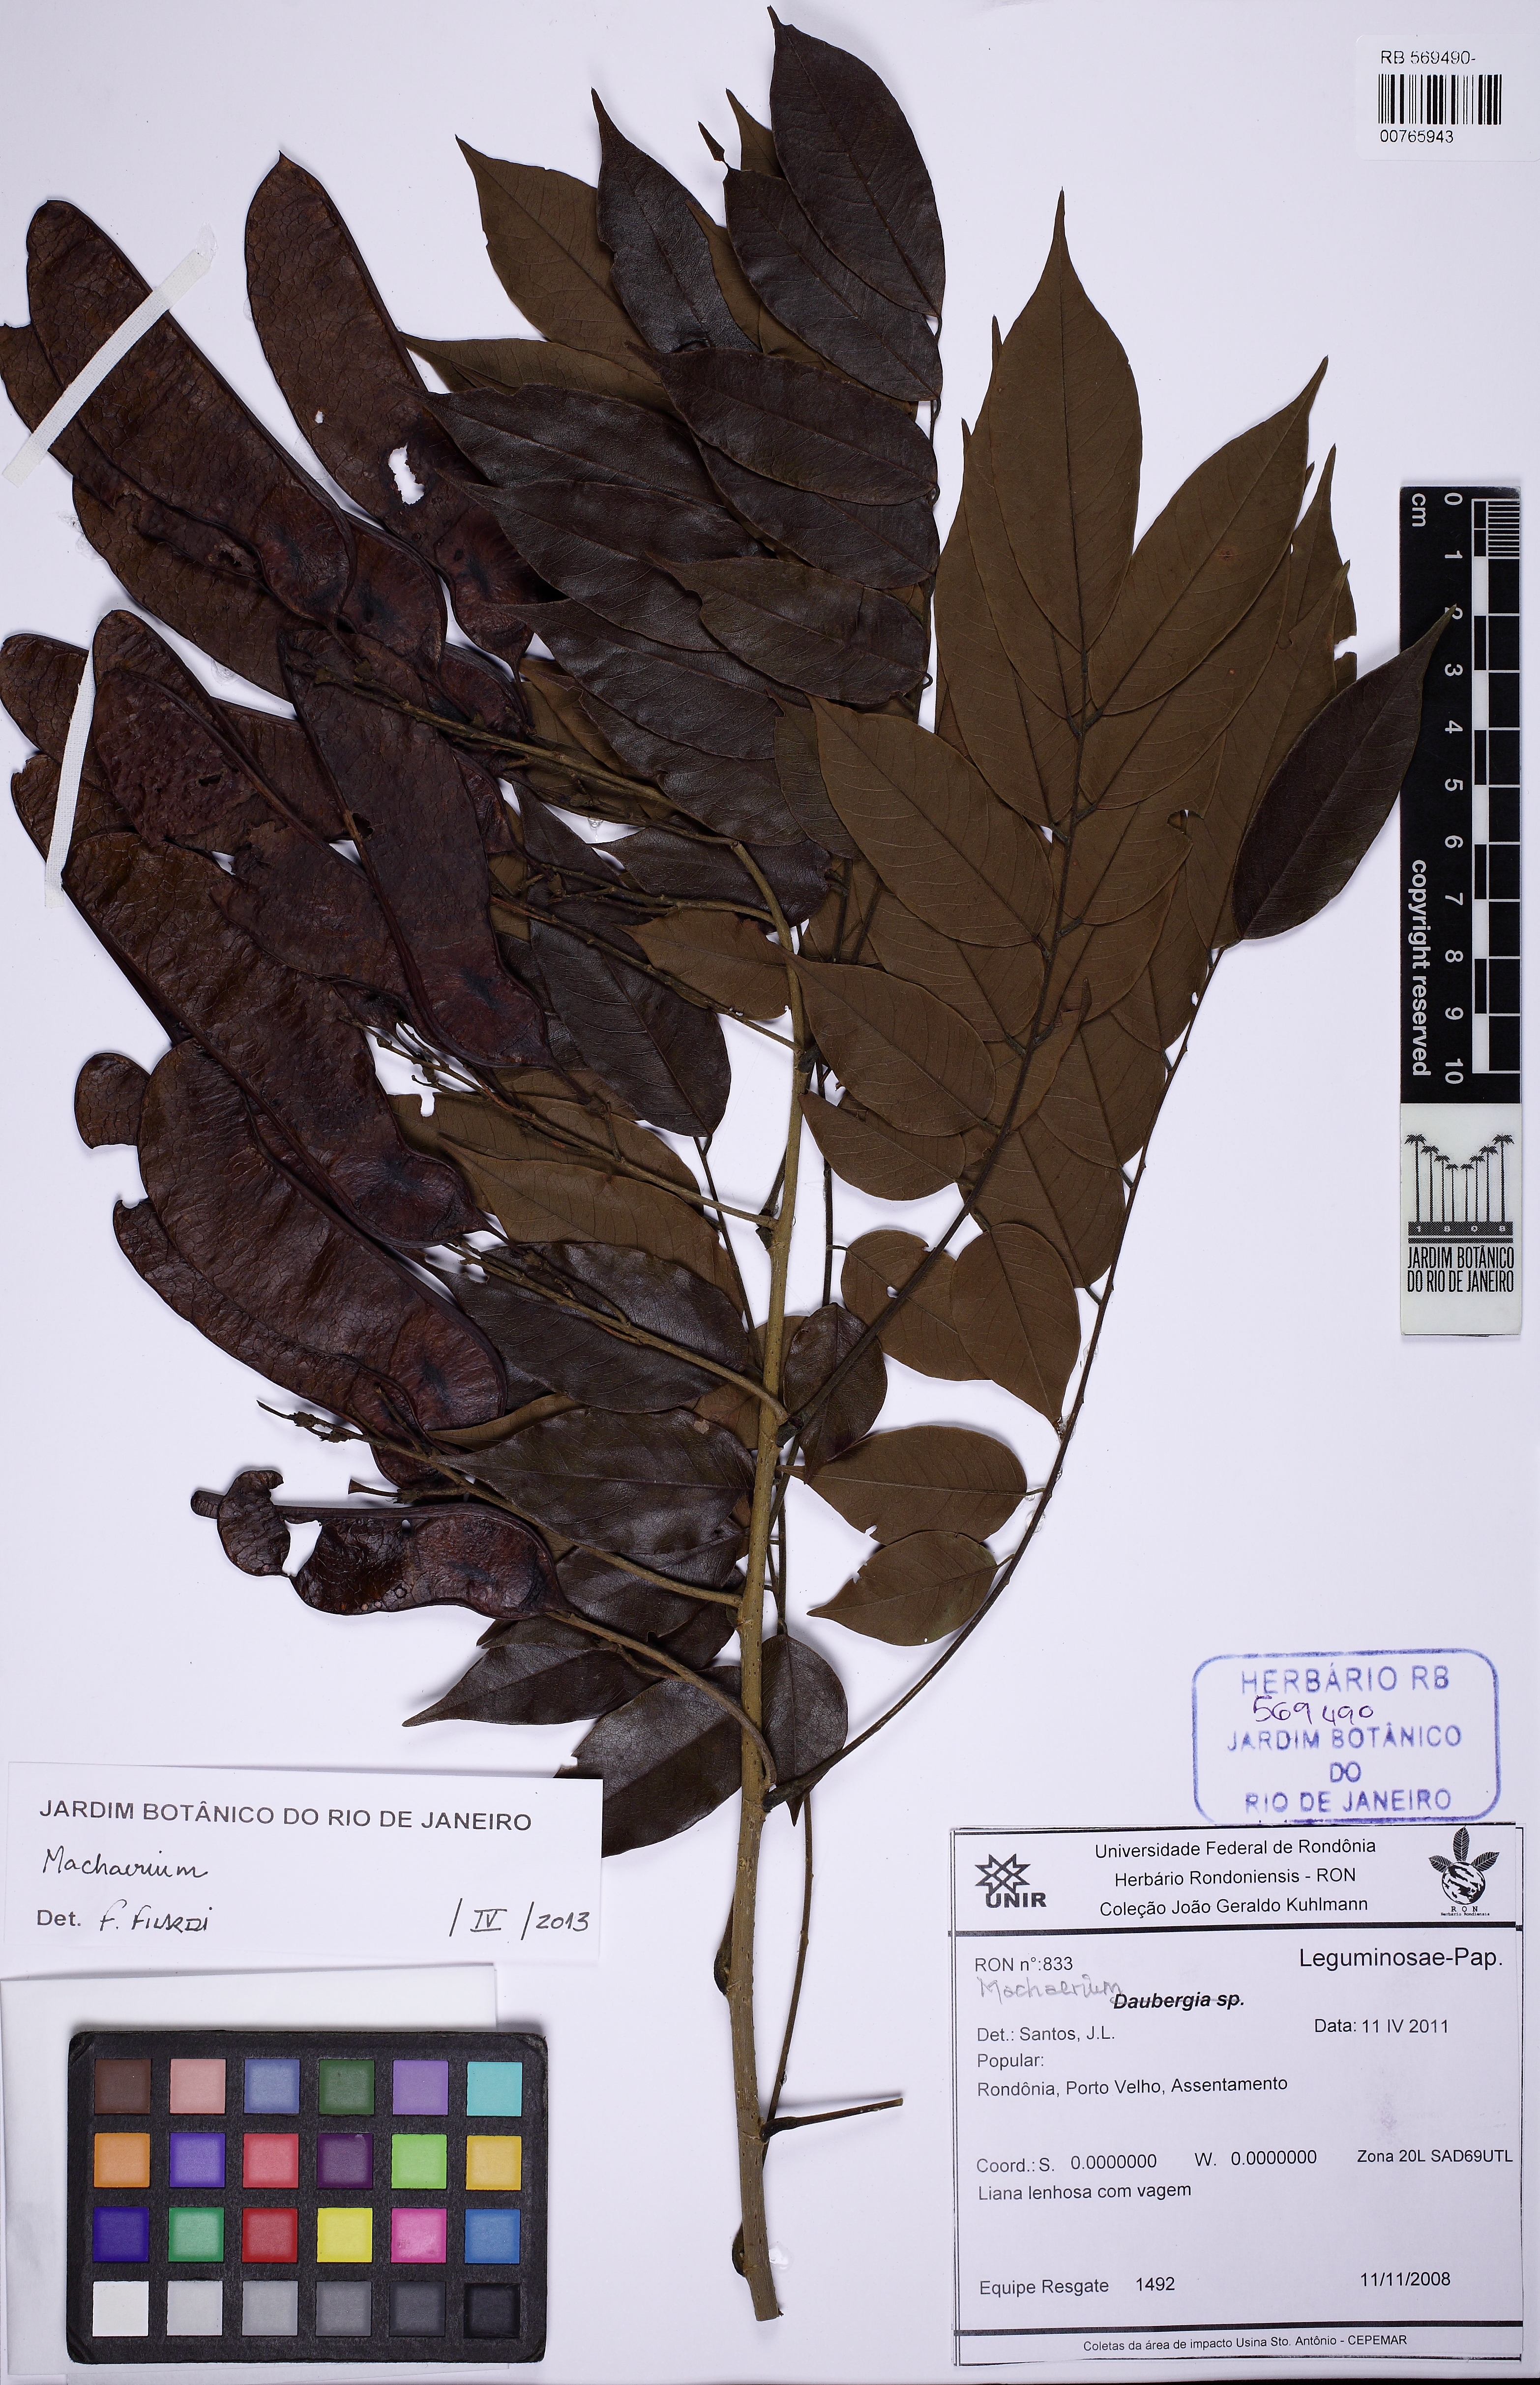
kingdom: Plantae
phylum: Tracheophyta
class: Magnoliopsida
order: Fabales
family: Fabaceae
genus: Machaerium
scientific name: Machaerium
